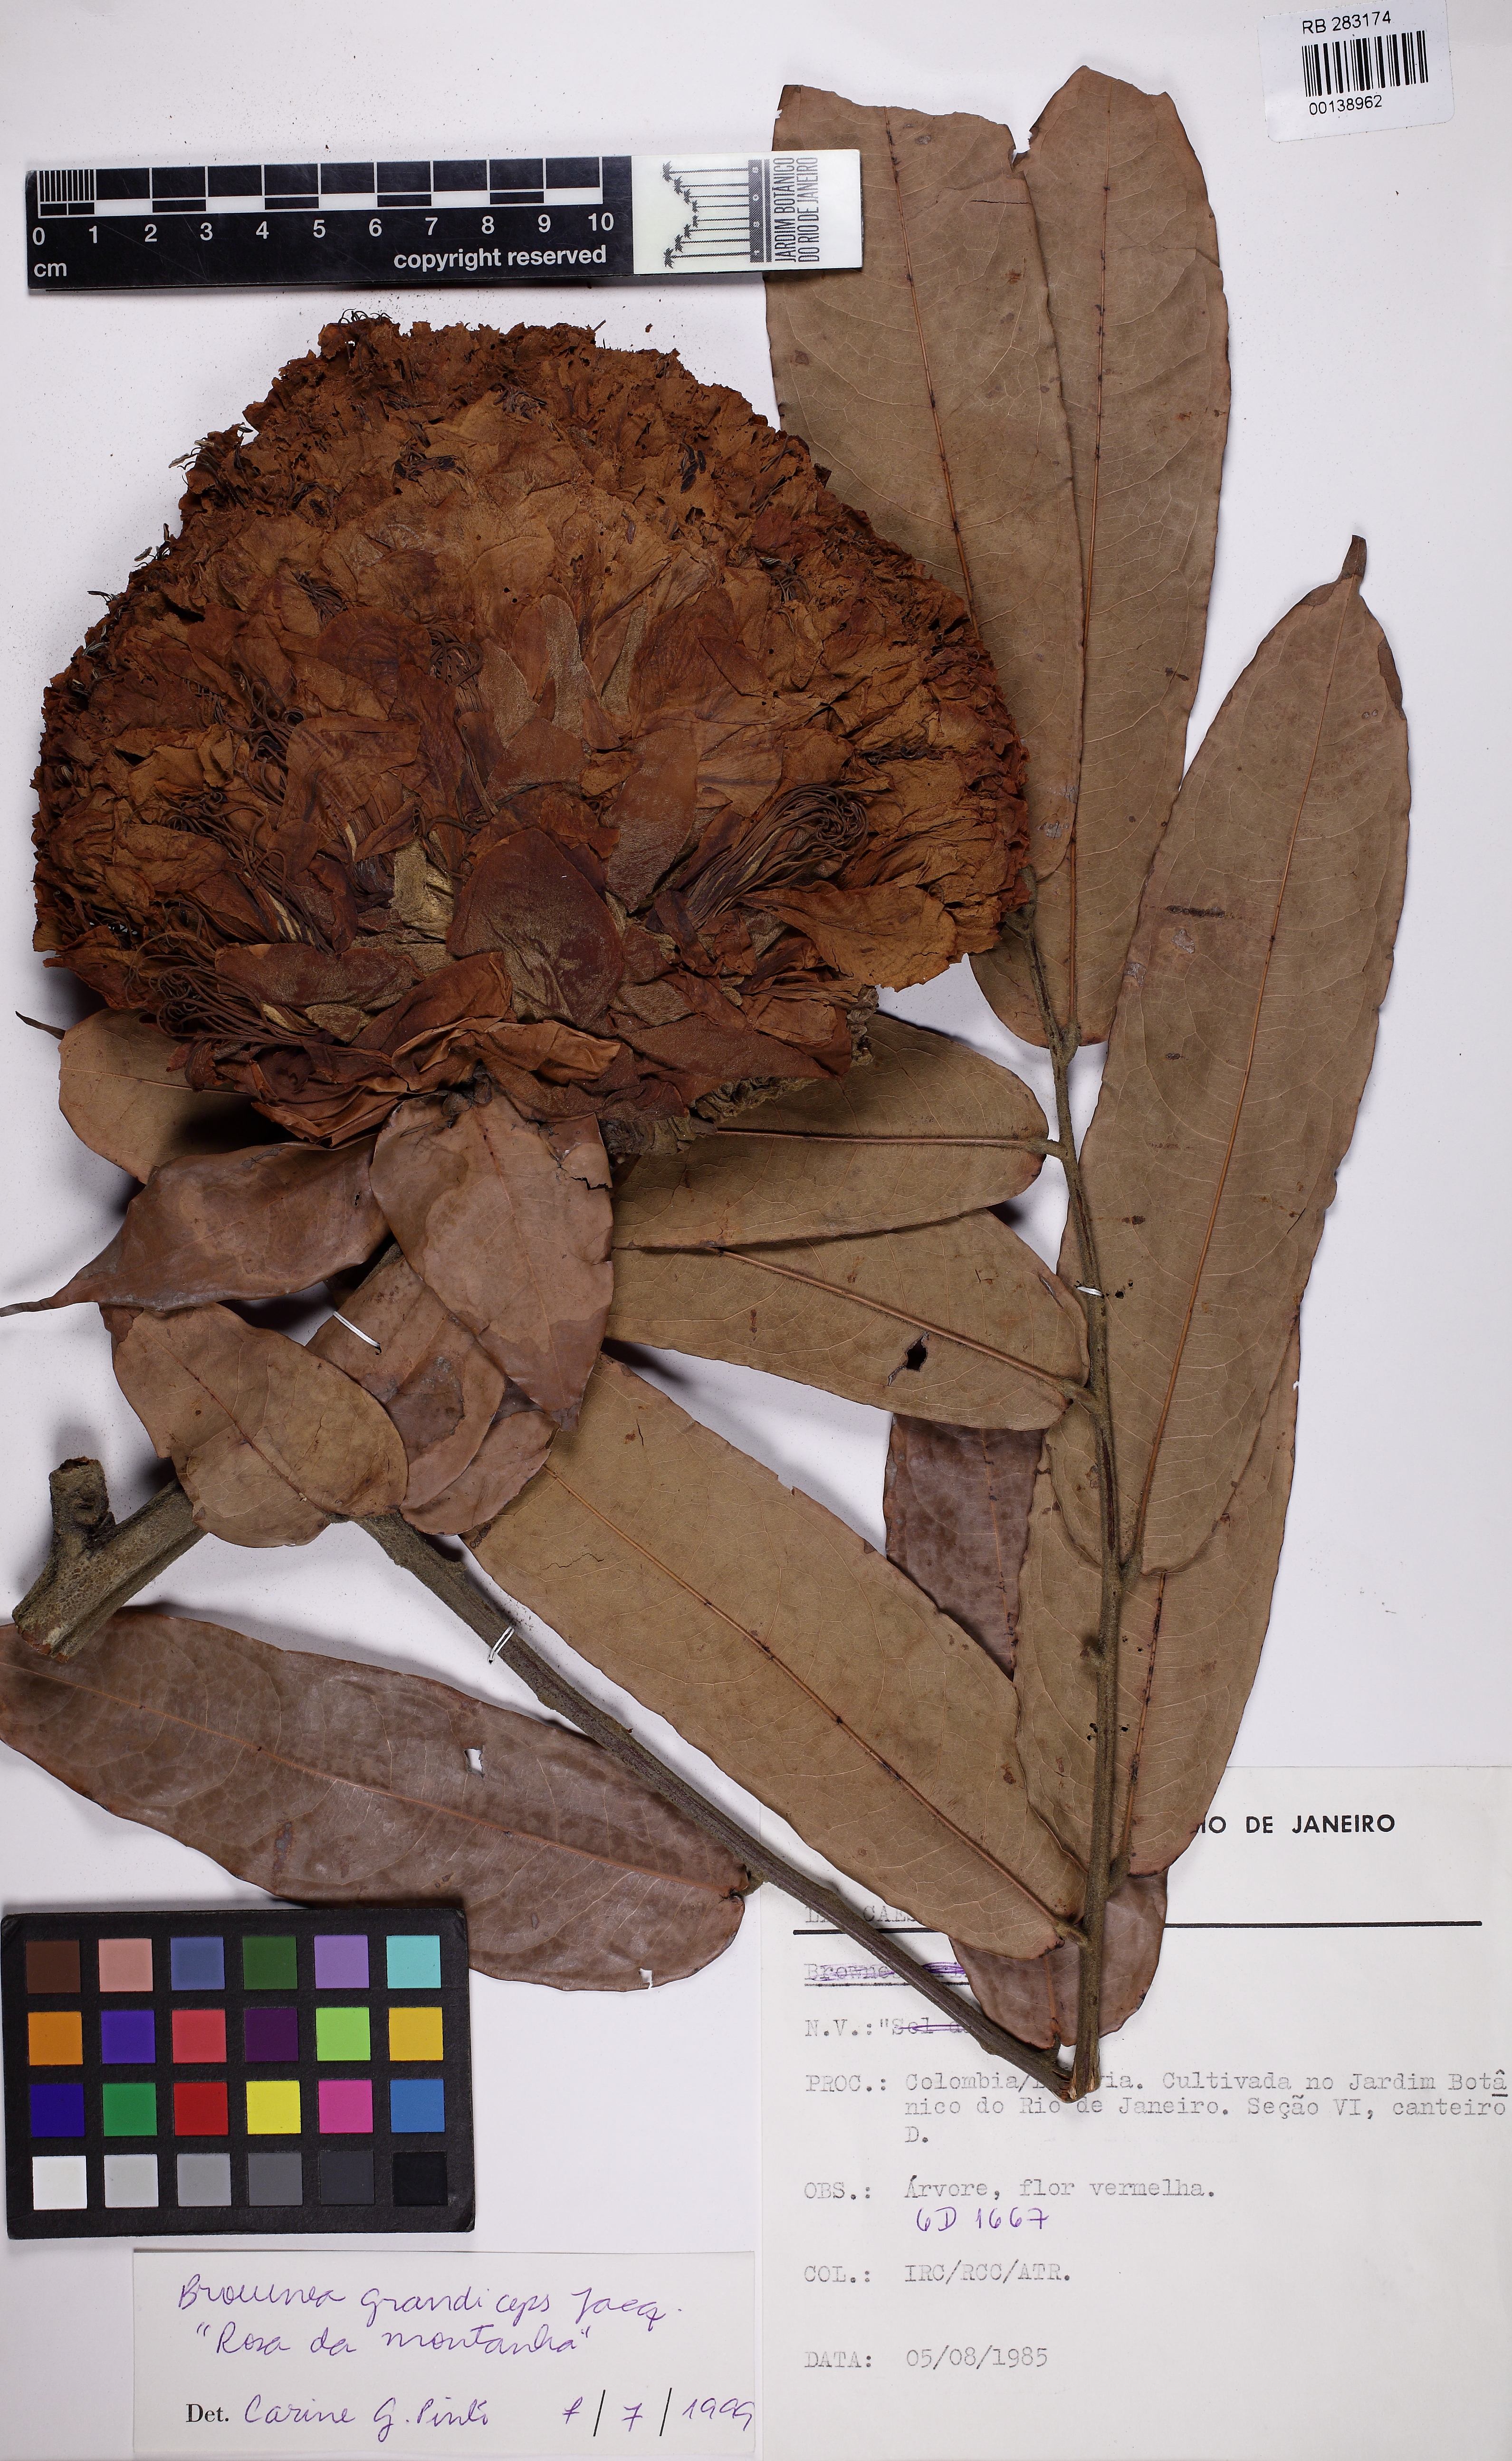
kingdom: Plantae
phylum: Tracheophyta
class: Magnoliopsida
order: Fabales
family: Fabaceae
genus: Brownea
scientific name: Brownea grandiceps
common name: Rose-of-venezuela
